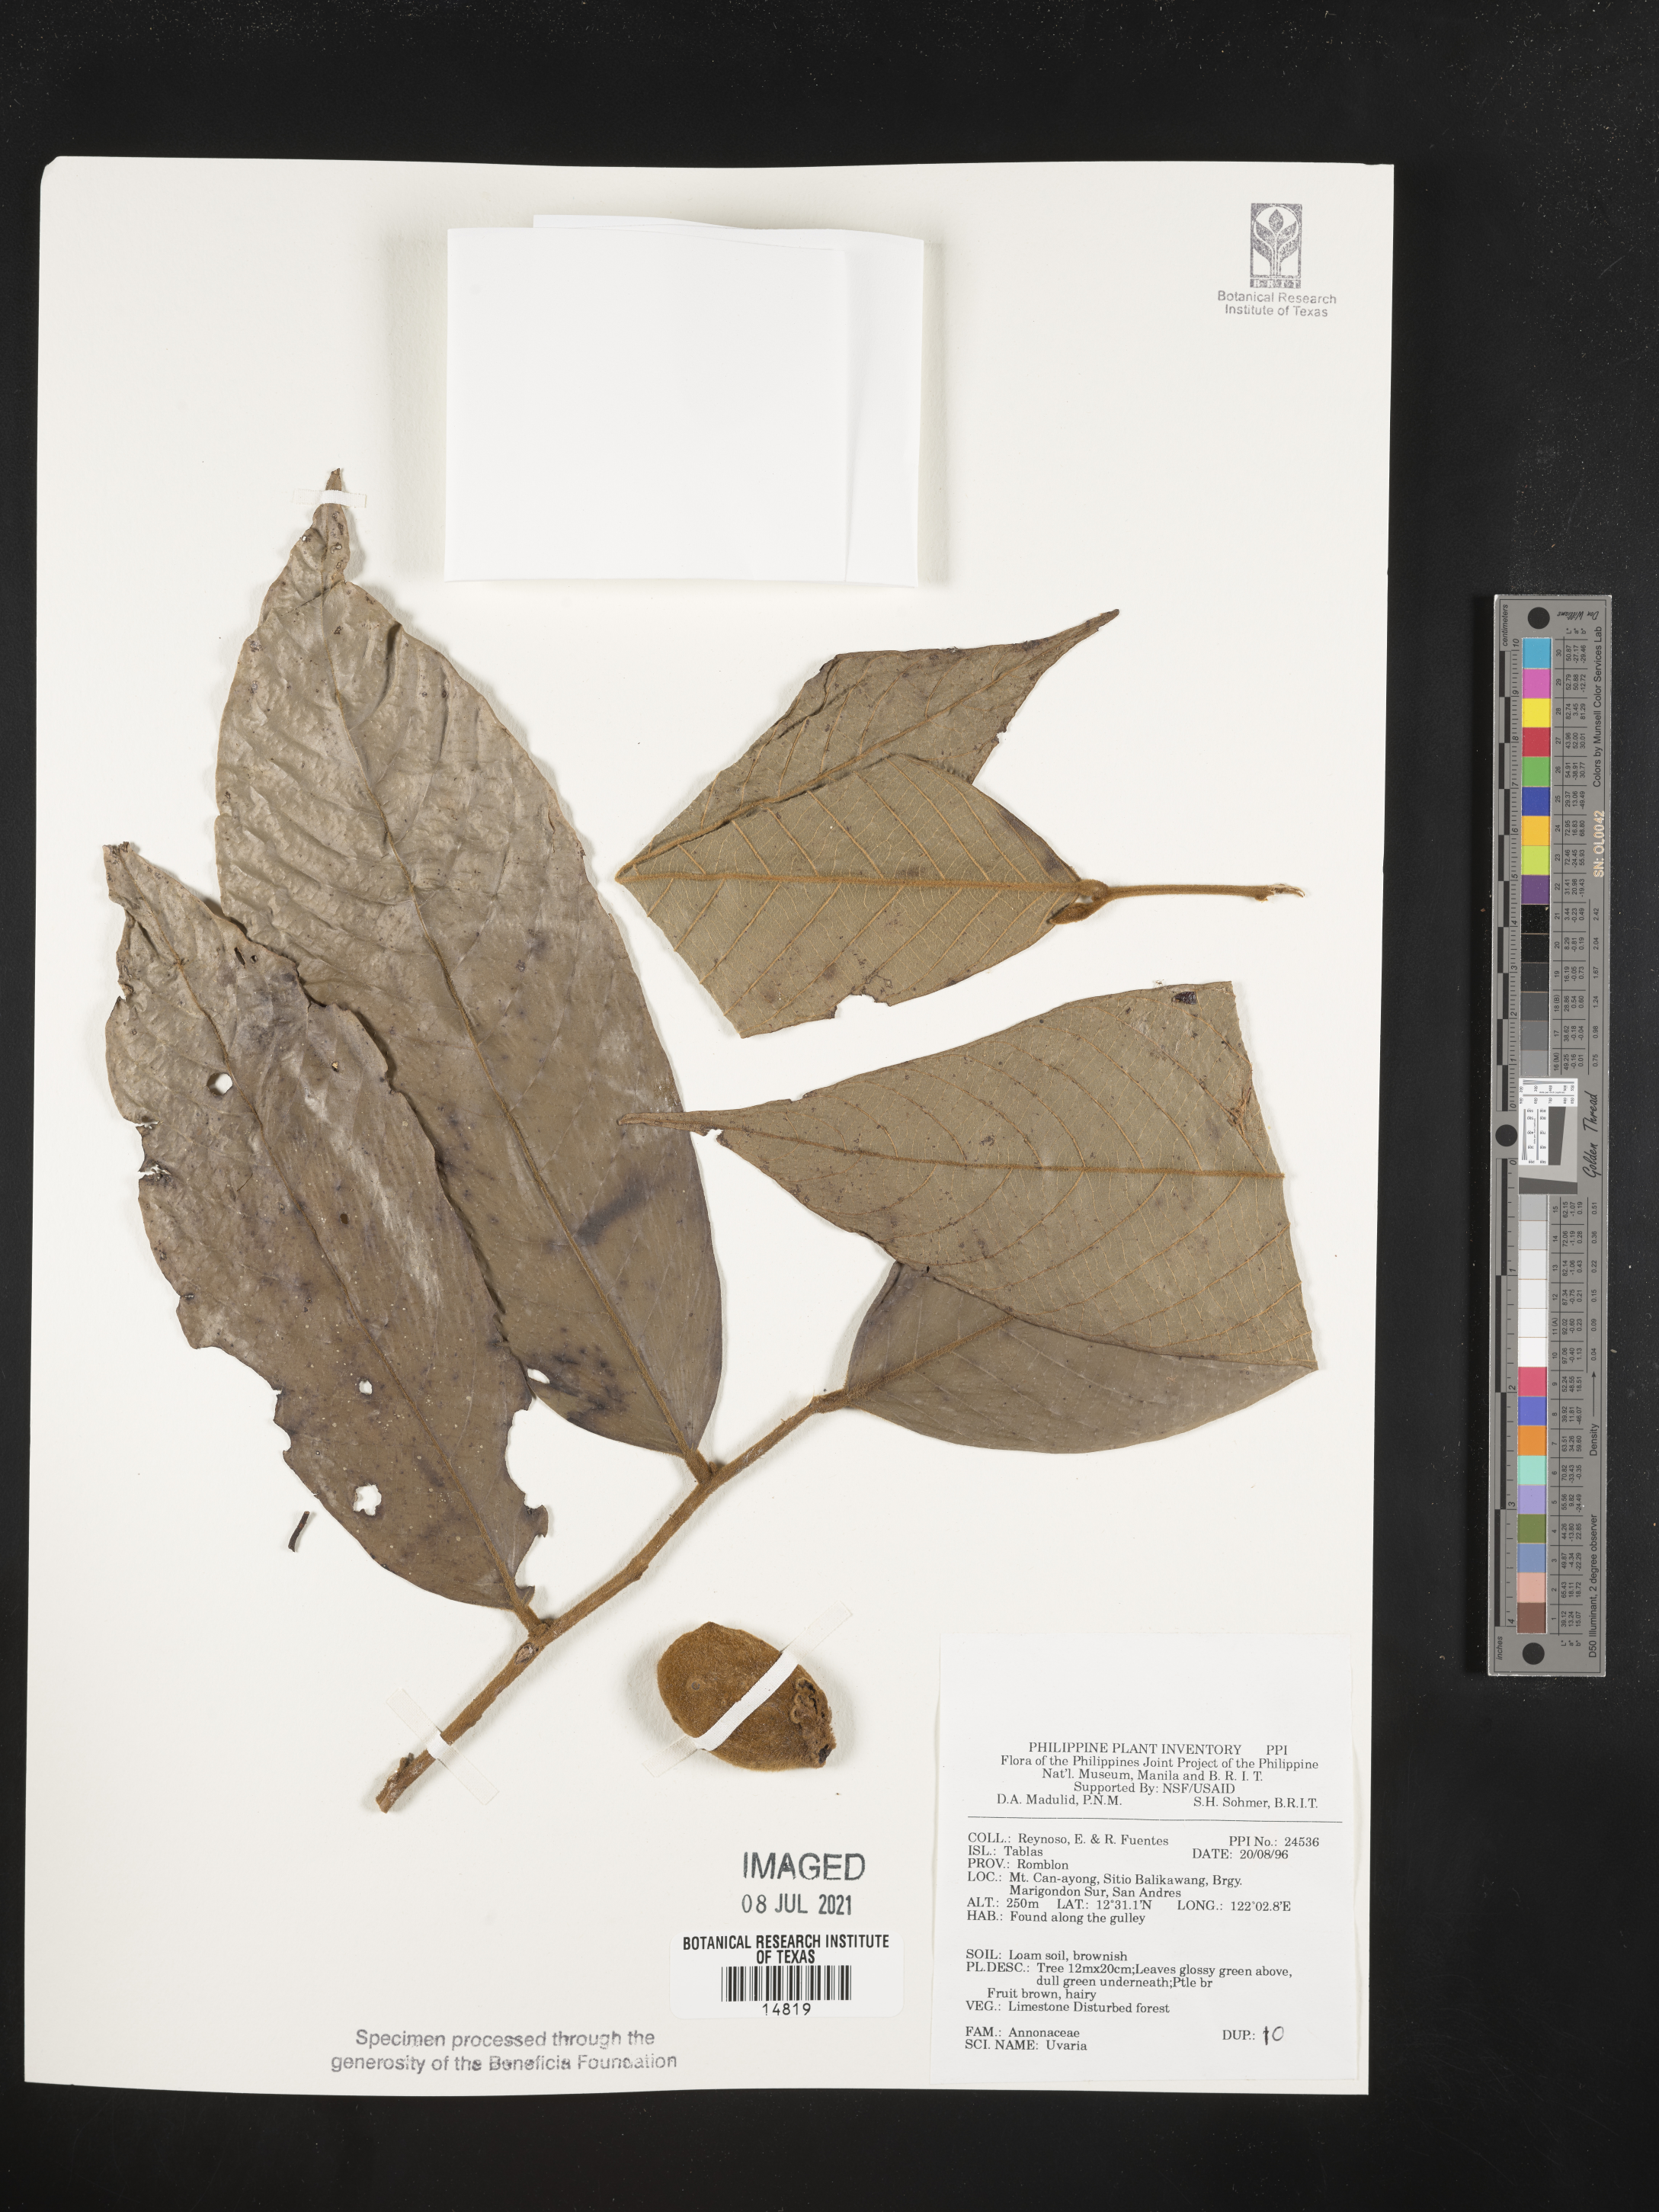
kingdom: Plantae
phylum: Tracheophyta
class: Magnoliopsida
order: Magnoliales
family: Annonaceae
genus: Uvaria
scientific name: Uvaria
